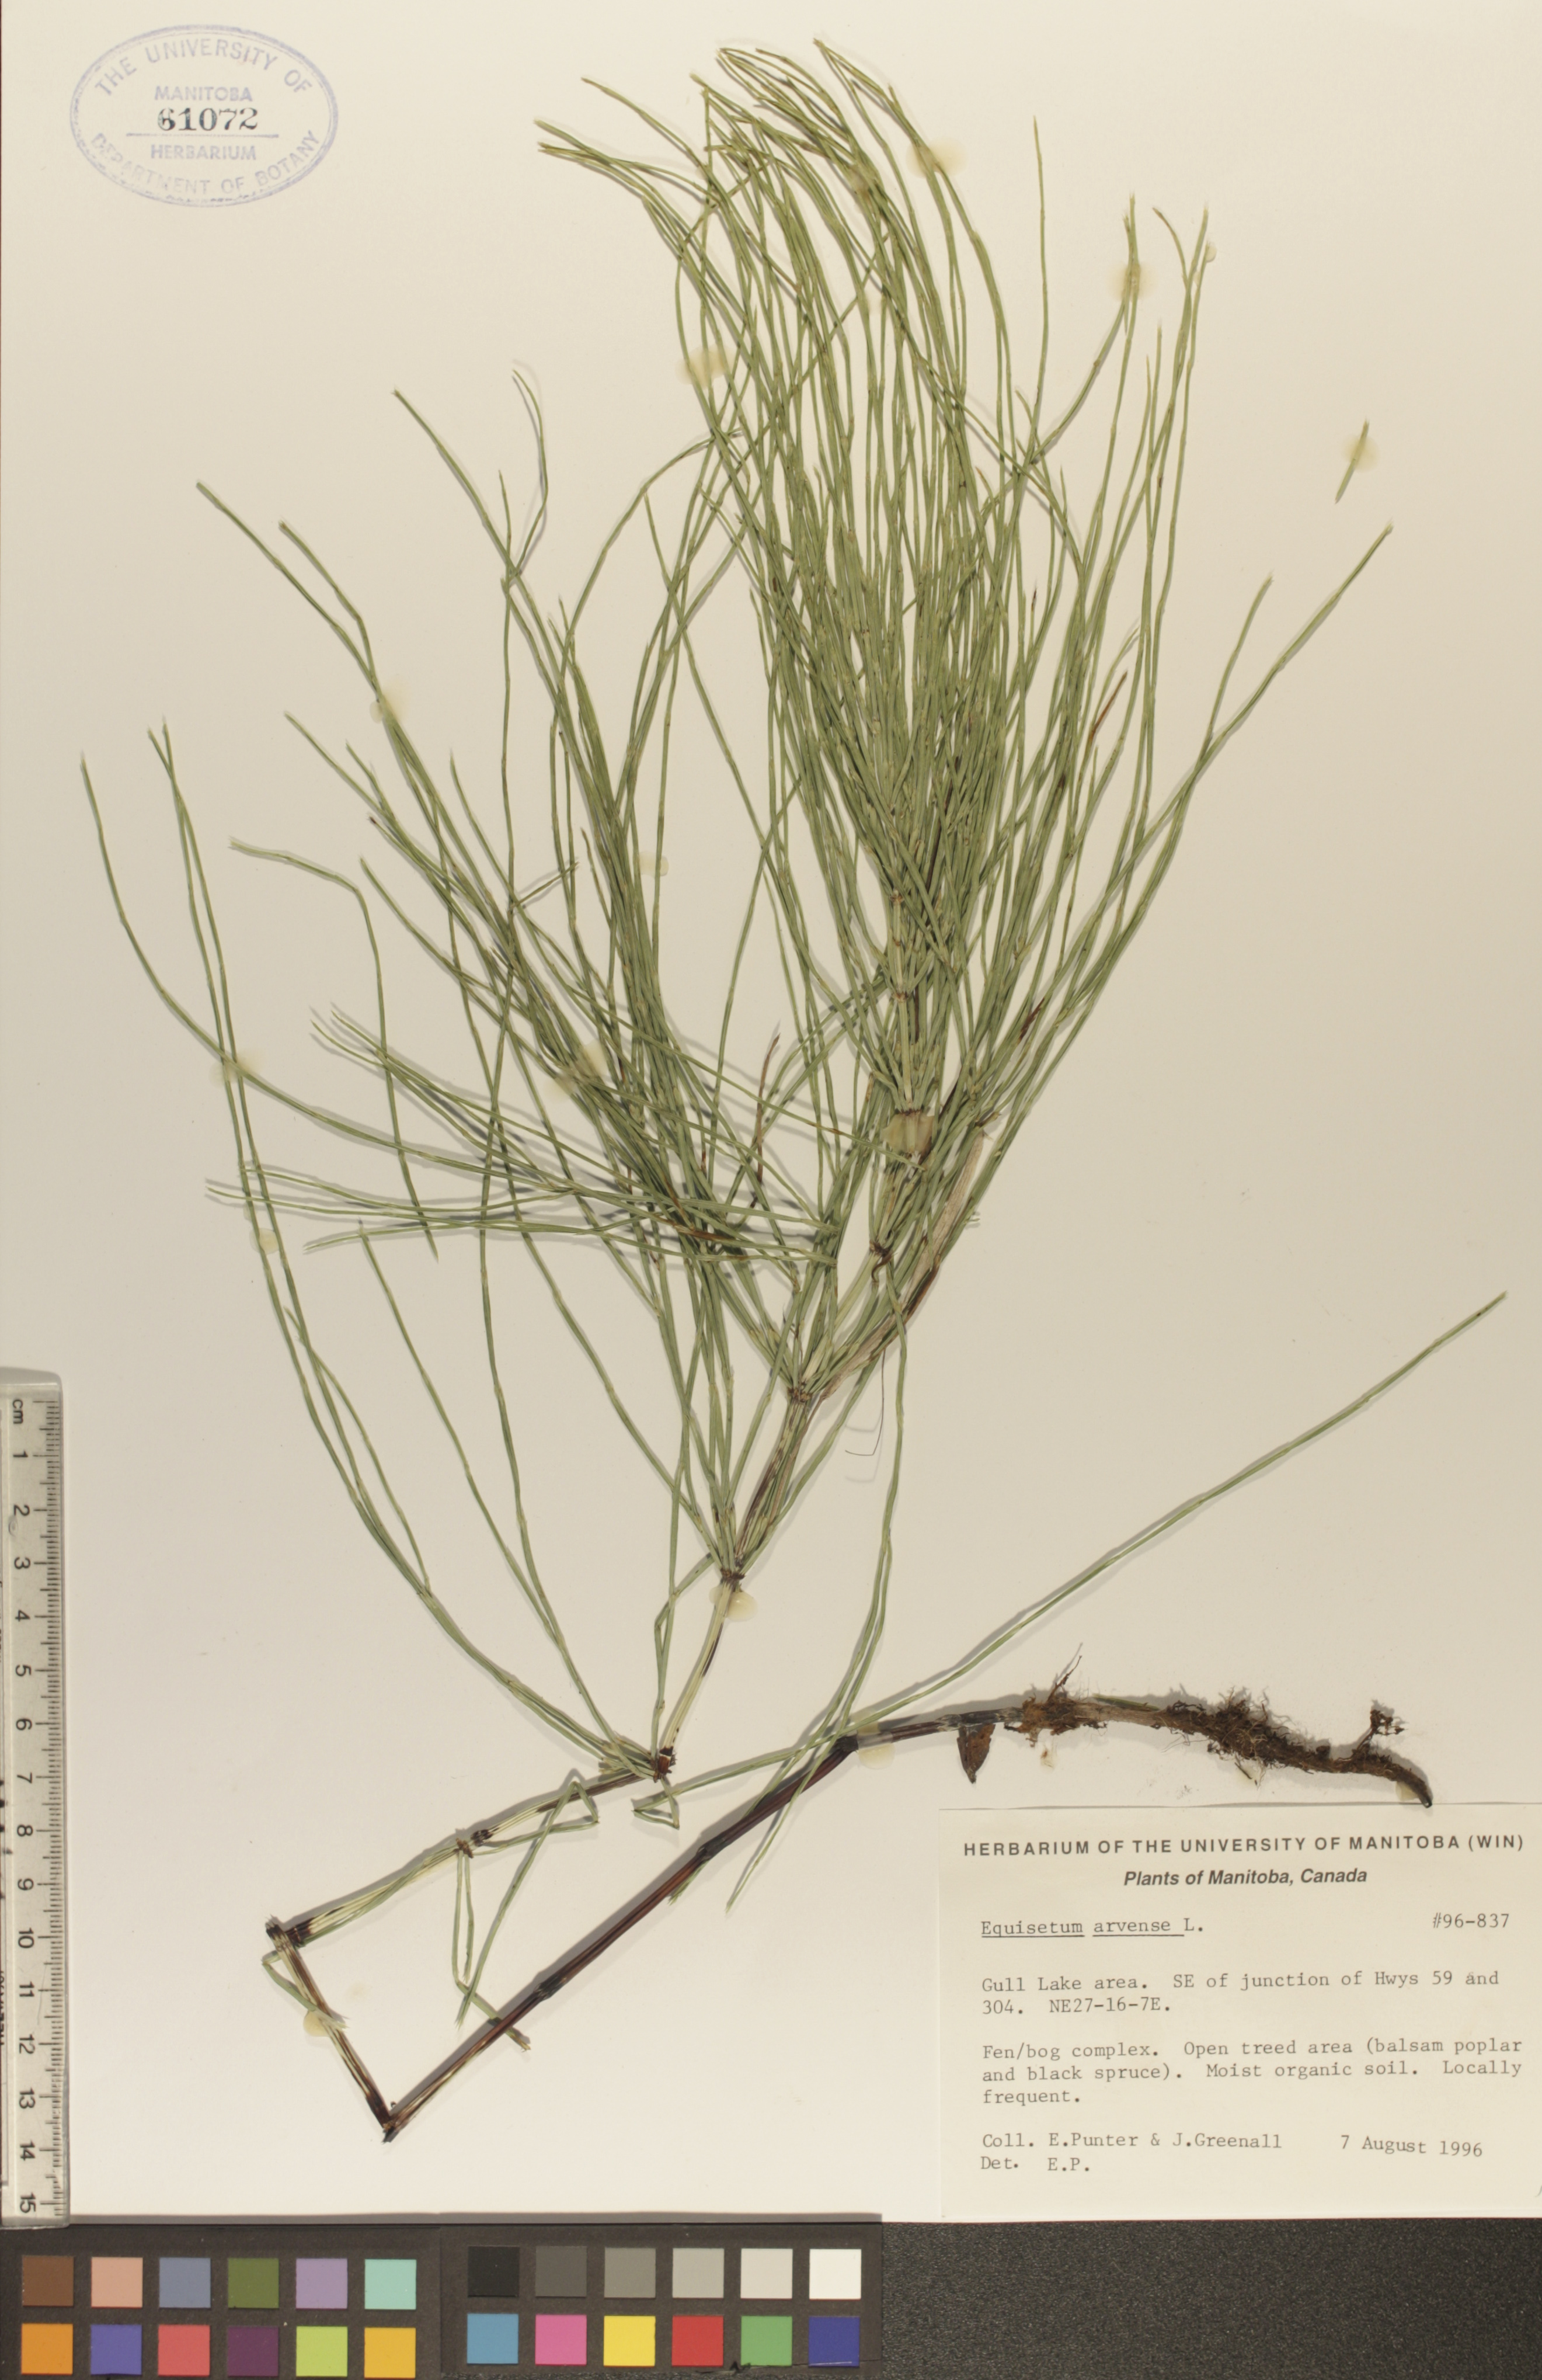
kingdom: Plantae
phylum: Tracheophyta
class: Polypodiopsida
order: Equisetales
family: Equisetaceae
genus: Equisetum
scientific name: Equisetum arvense
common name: Field horsetail
